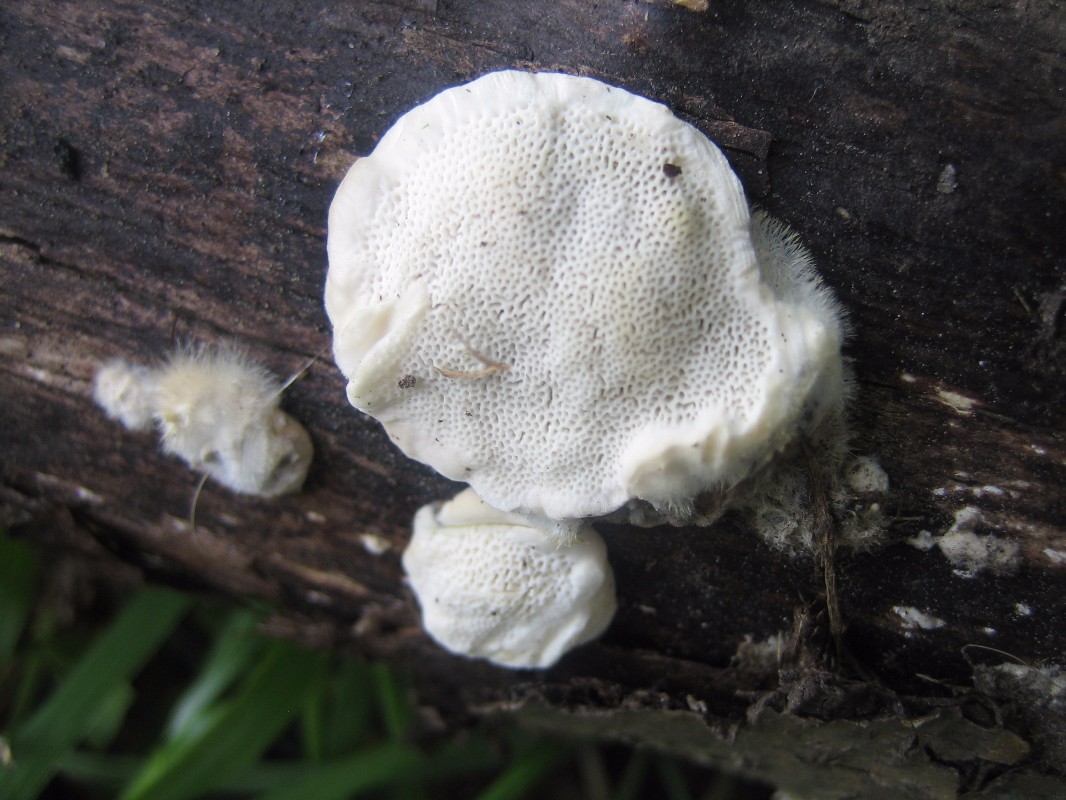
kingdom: Fungi
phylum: Basidiomycota
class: Agaricomycetes
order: Polyporales
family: Polyporaceae
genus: Trametes
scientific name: Trametes hirsuta
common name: håret læderporesvamp
